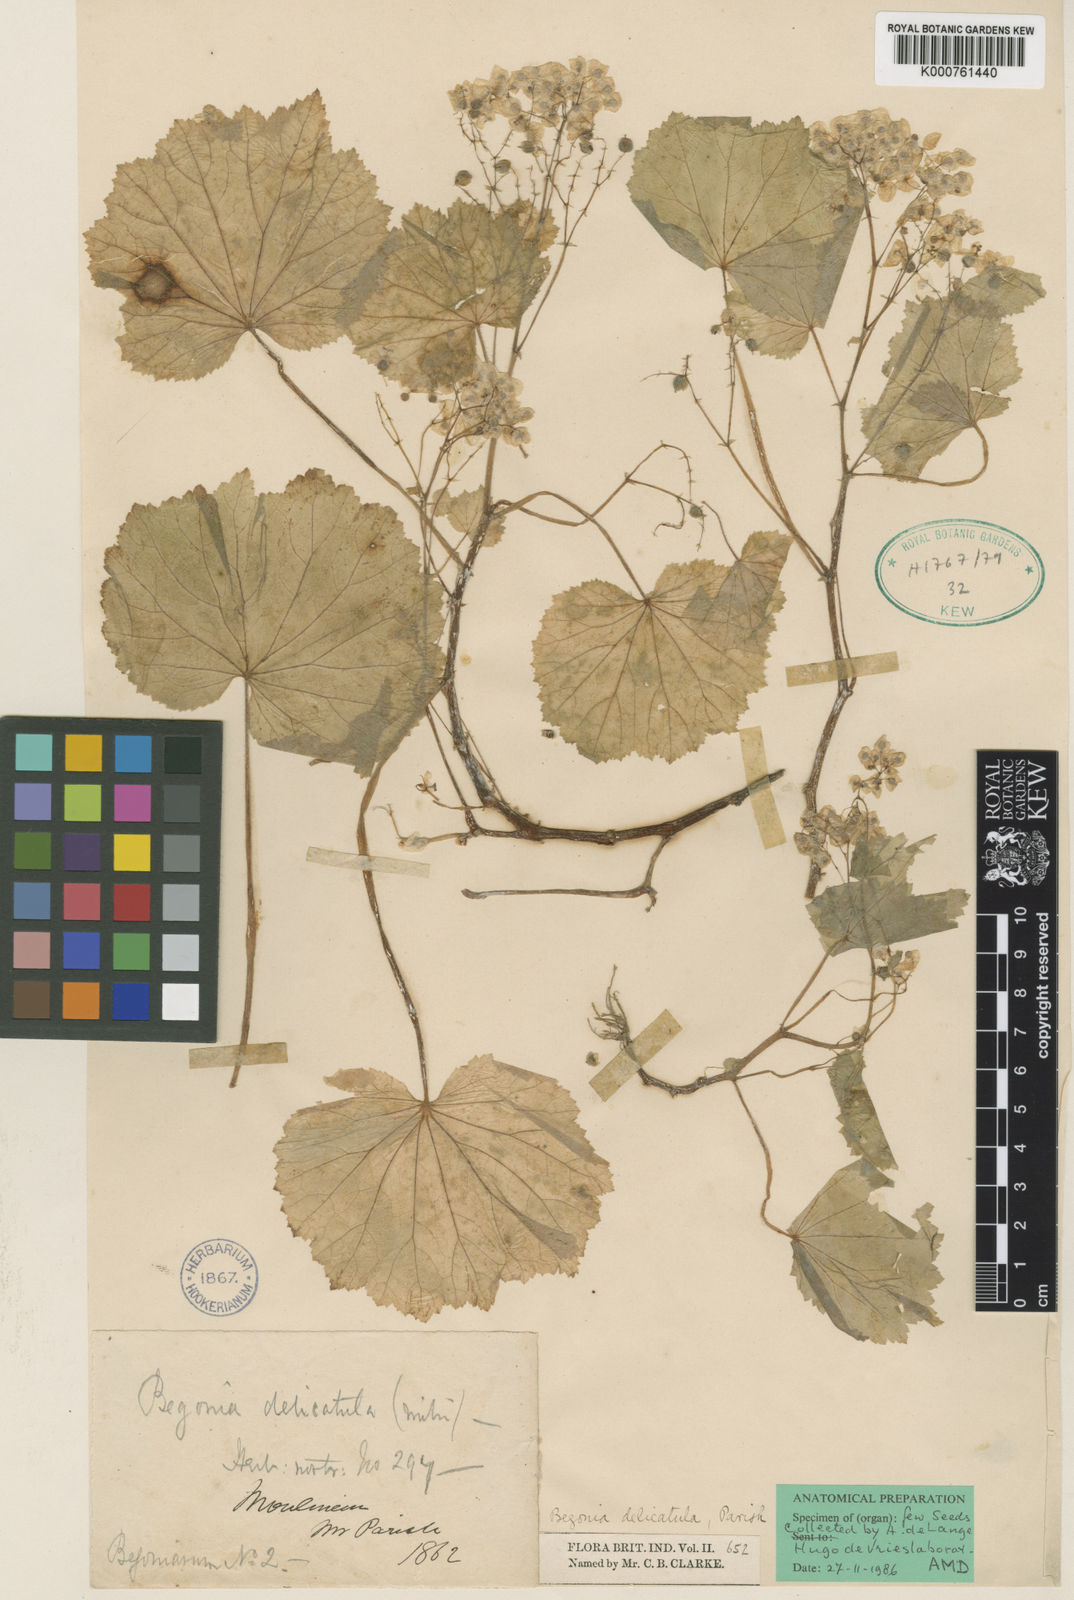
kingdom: Plantae
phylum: Tracheophyta
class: Magnoliopsida
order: Cucurbitales
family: Begoniaceae
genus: Begonia
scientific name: Begonia delicatula
